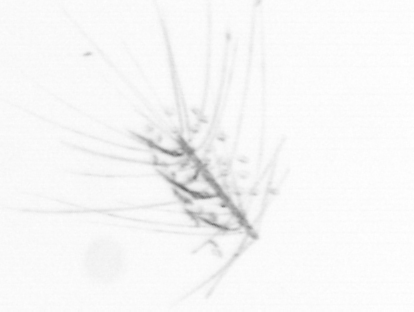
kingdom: Chromista
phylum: Ochrophyta
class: Bacillariophyceae
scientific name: Bacillariophyceae
